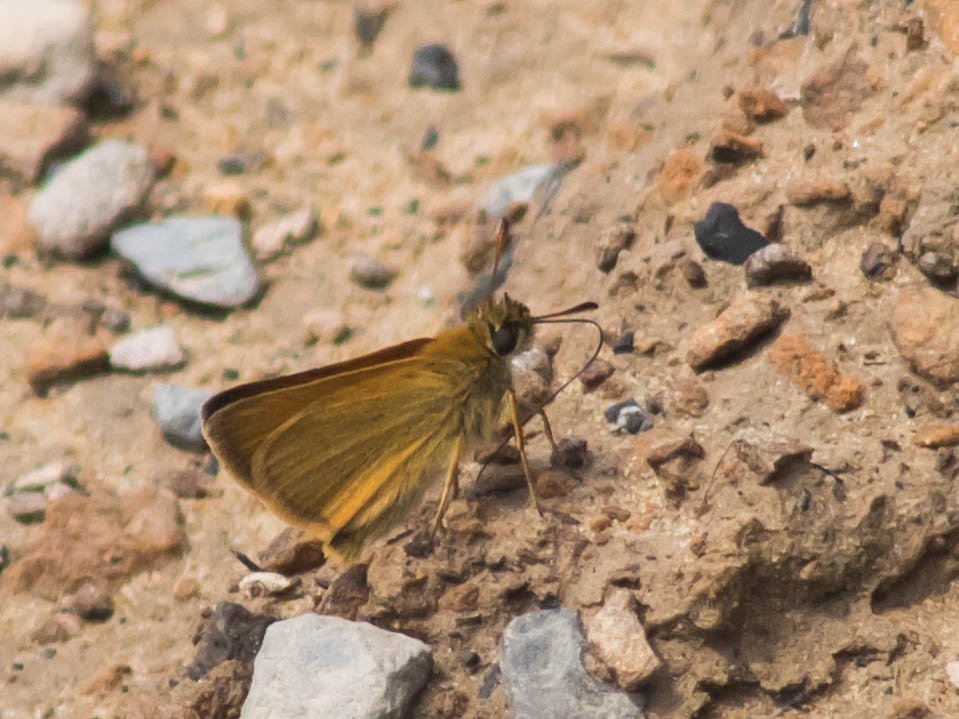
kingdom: Animalia
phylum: Arthropoda
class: Insecta
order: Lepidoptera
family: Hesperiidae
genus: Thymelicus
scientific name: Thymelicus lineola
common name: European Skipper
